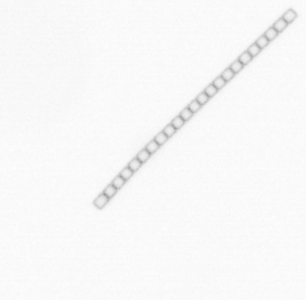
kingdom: Chromista
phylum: Ochrophyta
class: Bacillariophyceae
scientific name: Bacillariophyceae
